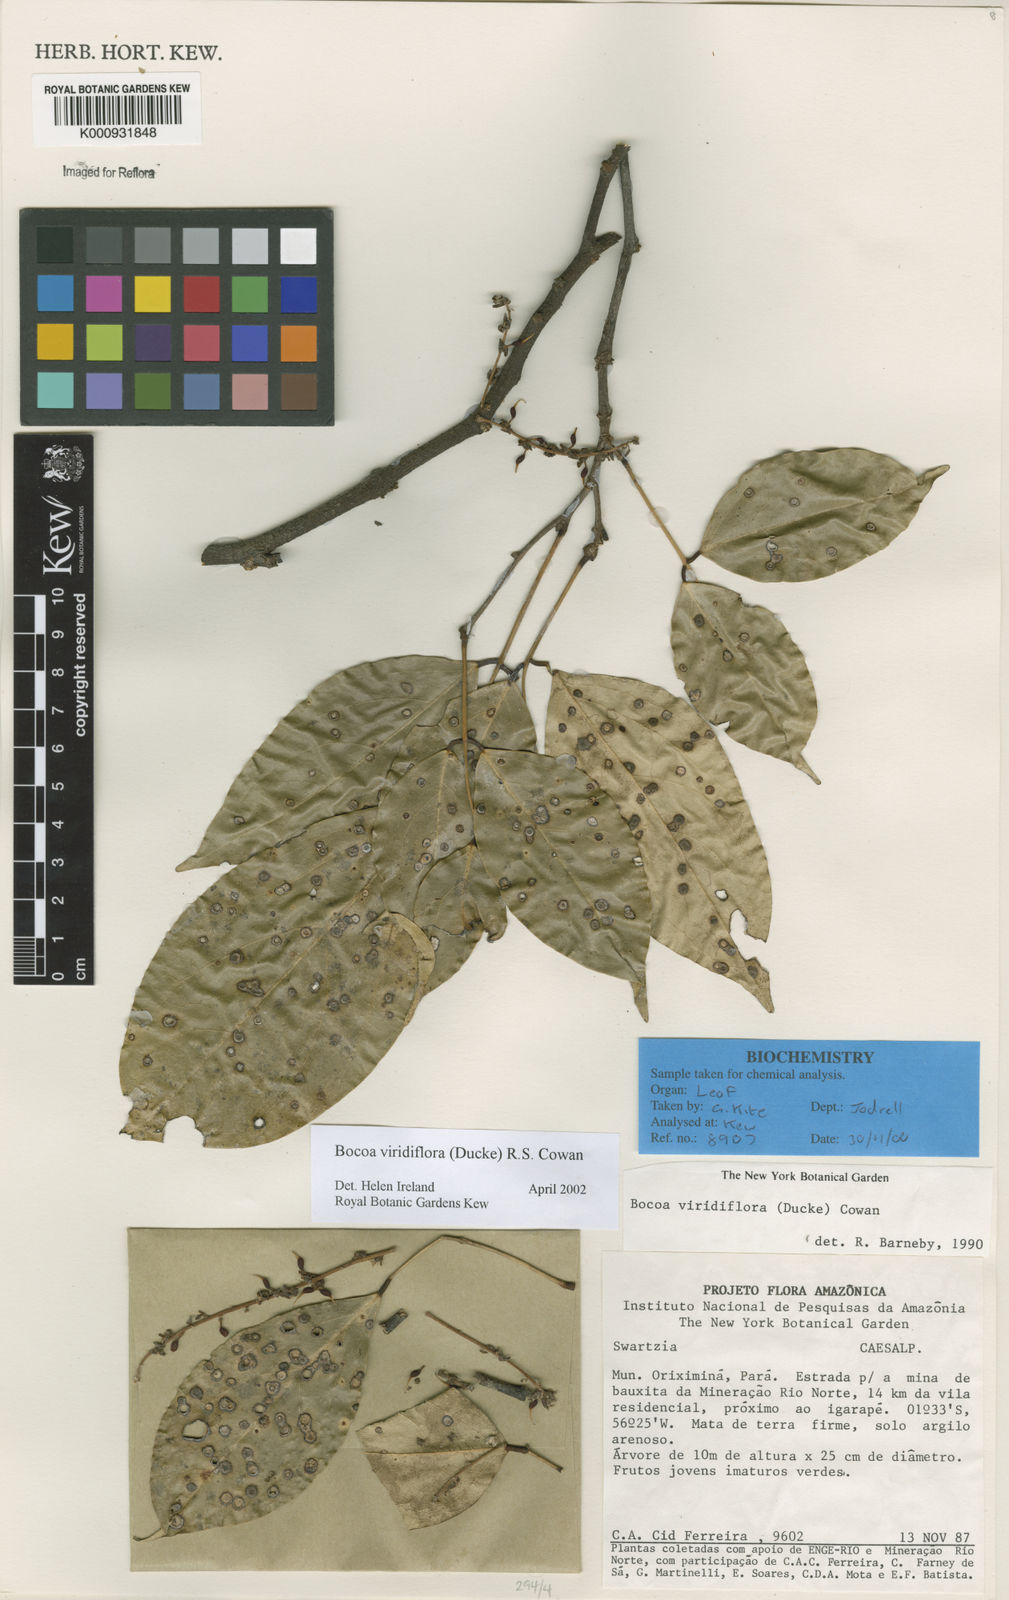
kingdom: Plantae
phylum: Tracheophyta
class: Magnoliopsida
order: Fabales
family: Fabaceae
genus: Bocoa
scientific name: Bocoa viridiflora
